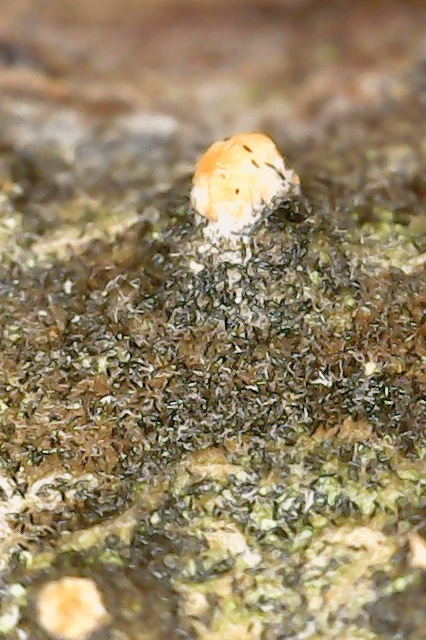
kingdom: Fungi
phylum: Ascomycota
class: Sordariomycetes
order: Hypocreales
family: Flammocladiellaceae
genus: Flammocladiella
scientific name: Flammocladiella decora
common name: kulvulkan-cinnobersvamp
